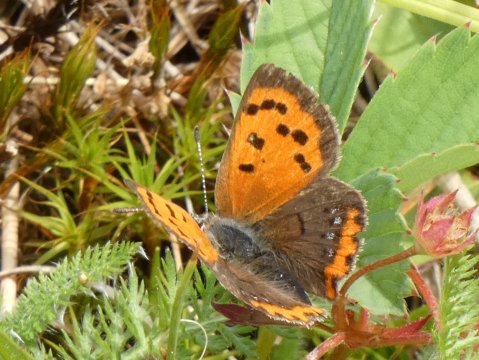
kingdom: Animalia
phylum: Arthropoda
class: Insecta
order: Lepidoptera
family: Lycaenidae
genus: Lycaena
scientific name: Lycaena phlaeas
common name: American Copper
